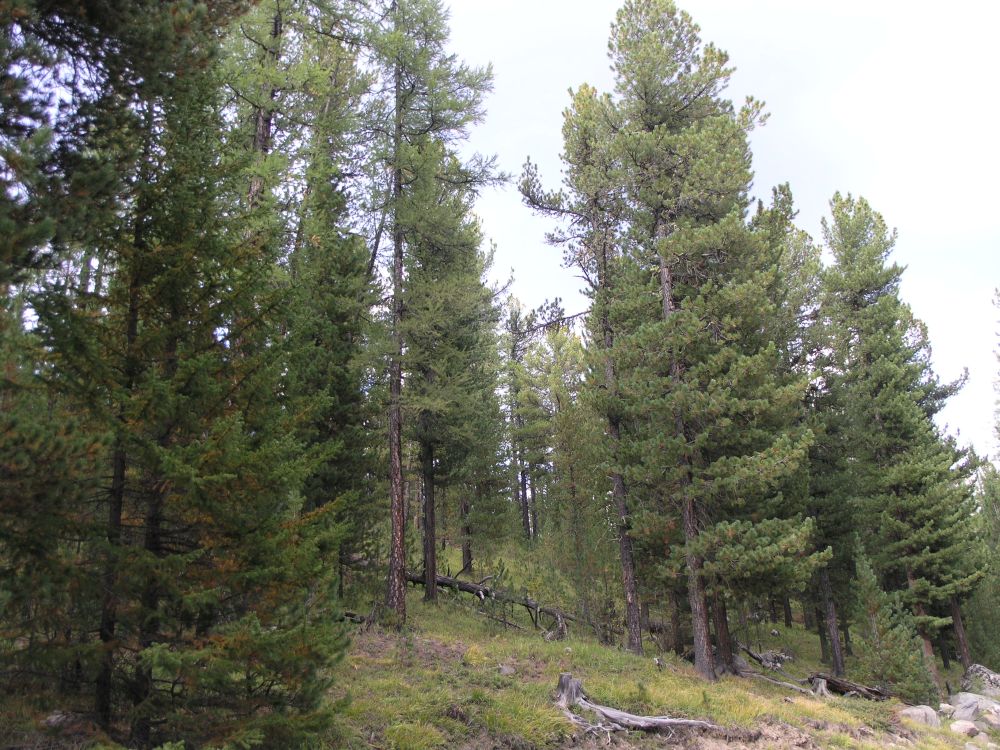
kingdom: Plantae
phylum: Tracheophyta
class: Pinopsida
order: Pinales
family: Pinaceae
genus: Pinus
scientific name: Pinus sibirica
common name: Siberian pine
